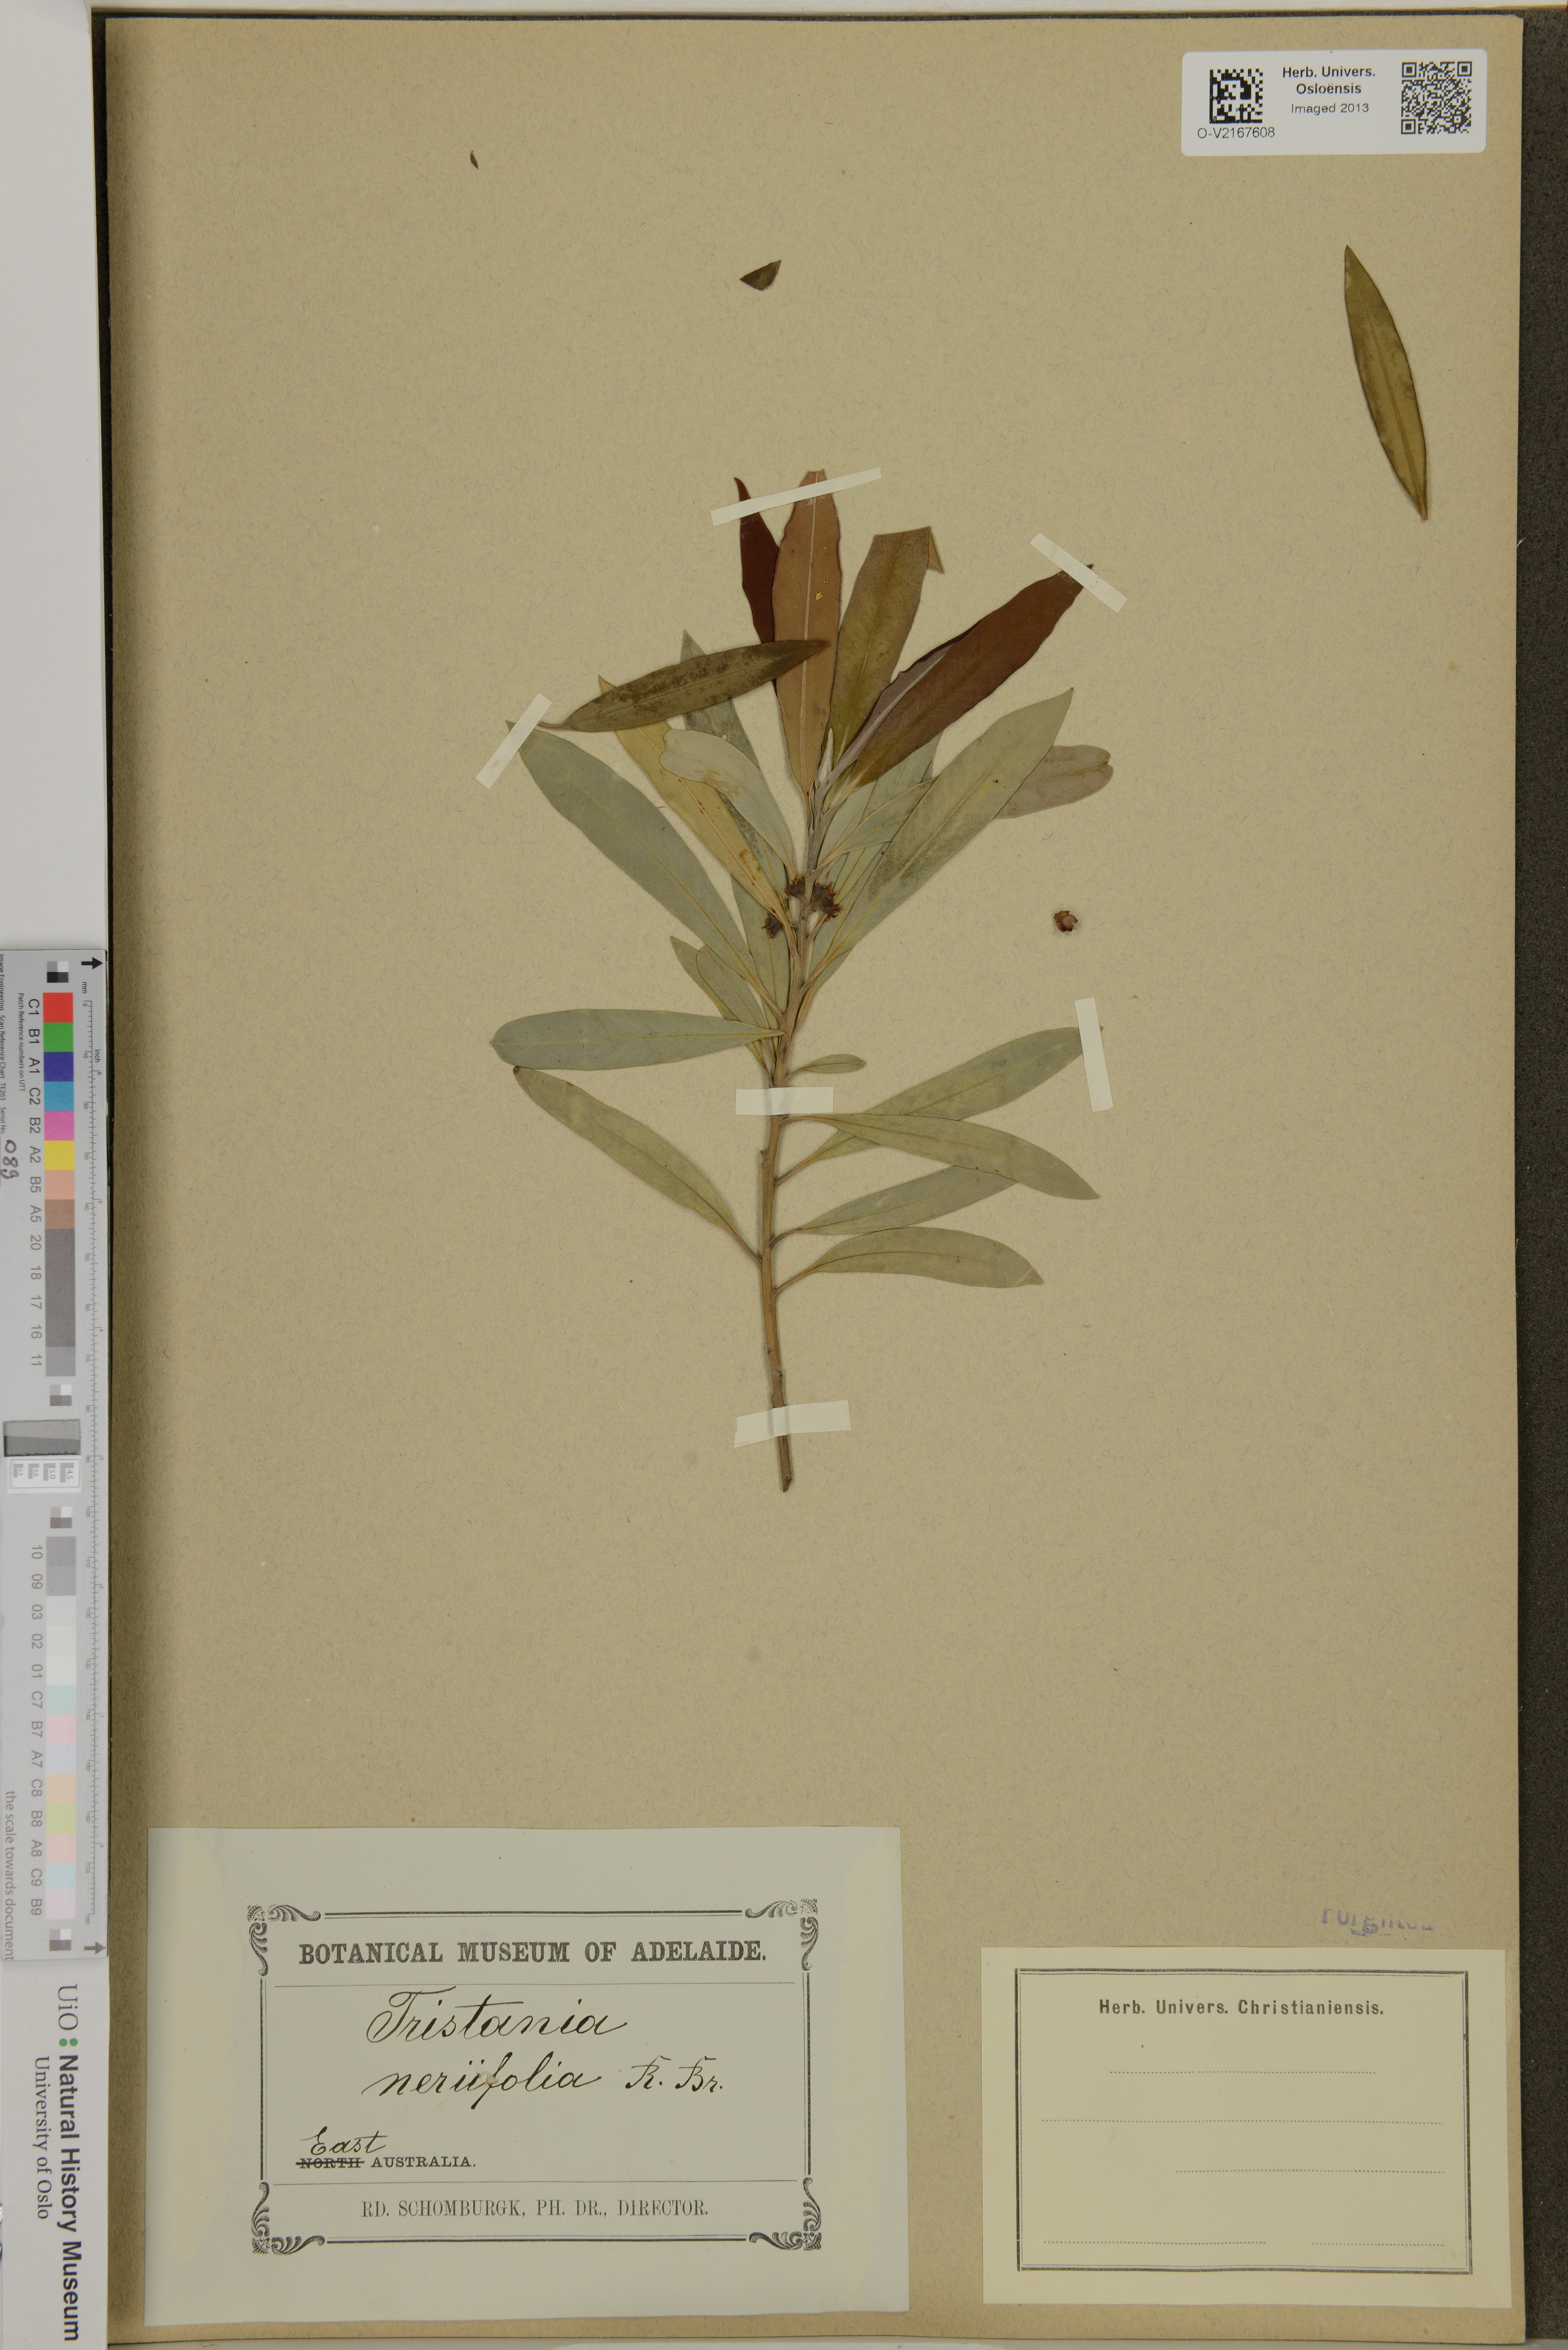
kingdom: Plantae
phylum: Tracheophyta
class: Magnoliopsida
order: Myrtales
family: Myrtaceae
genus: Tristania
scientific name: Tristania neriifolia
